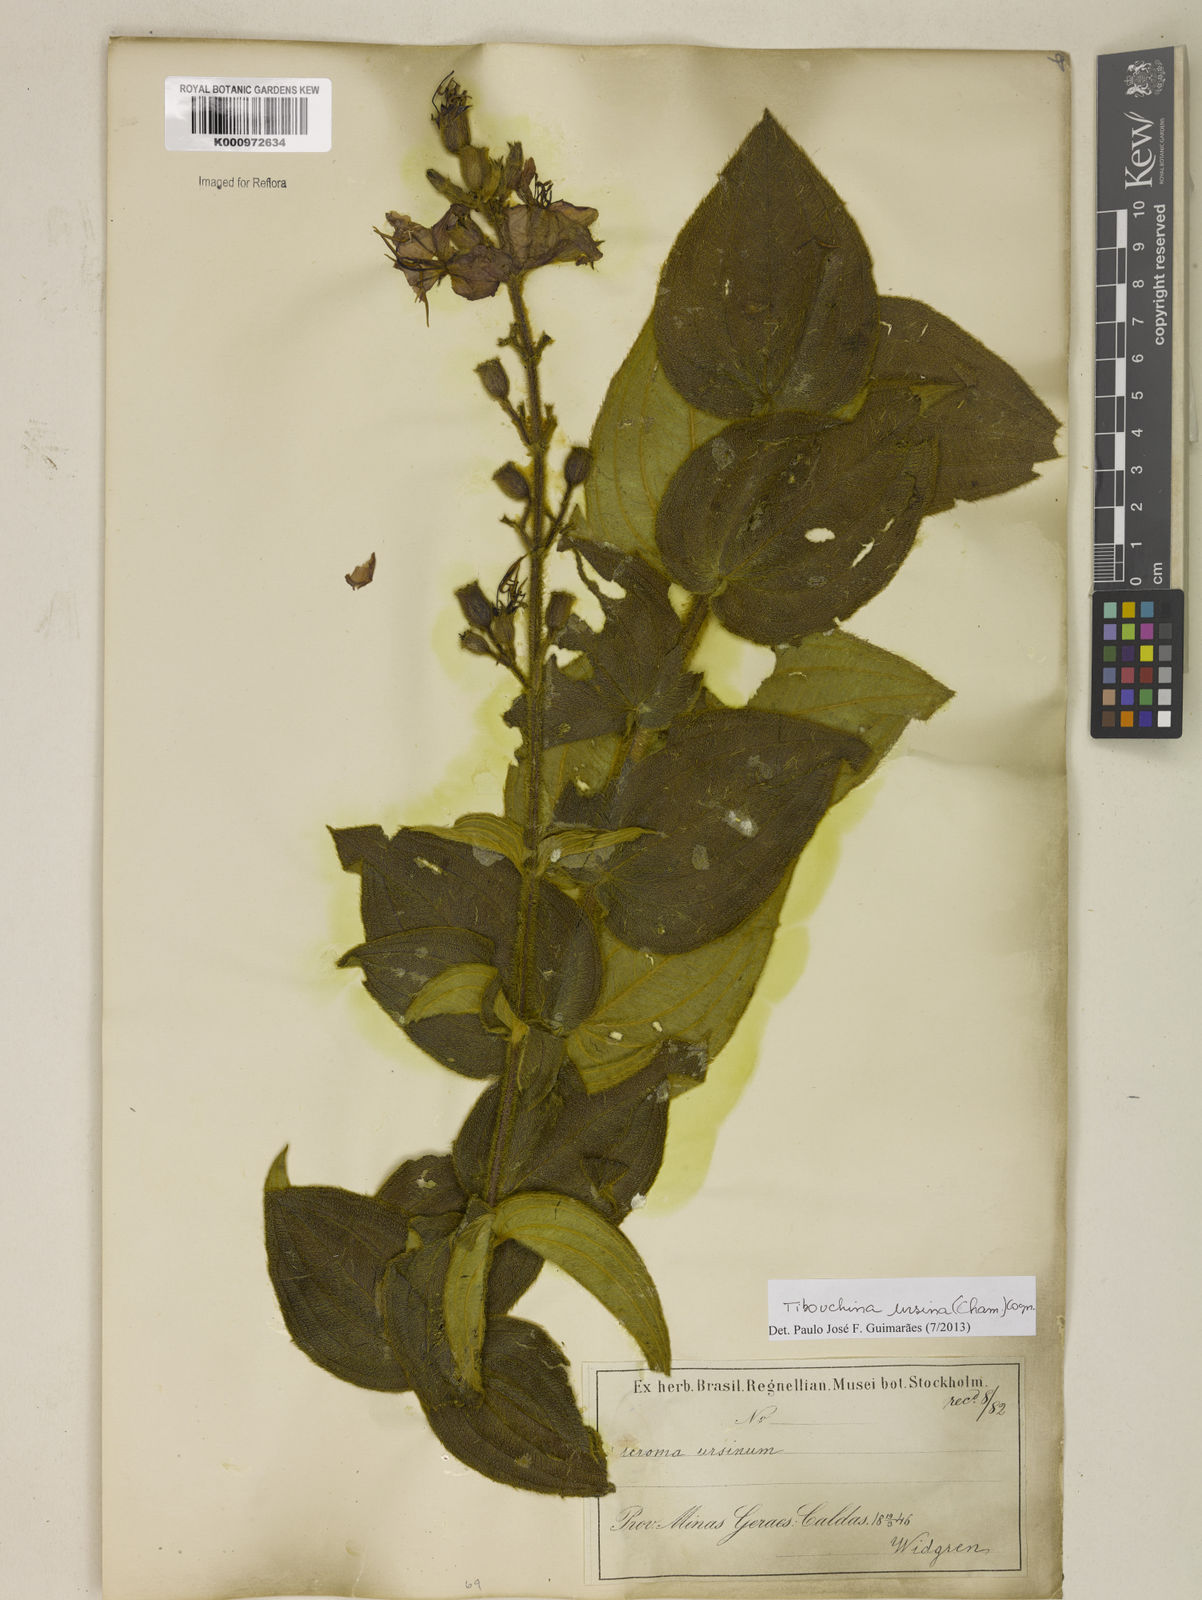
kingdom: Plantae
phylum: Tracheophyta
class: Magnoliopsida
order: Myrtales
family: Melastomataceae
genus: Pleroma
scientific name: Pleroma ursinum
